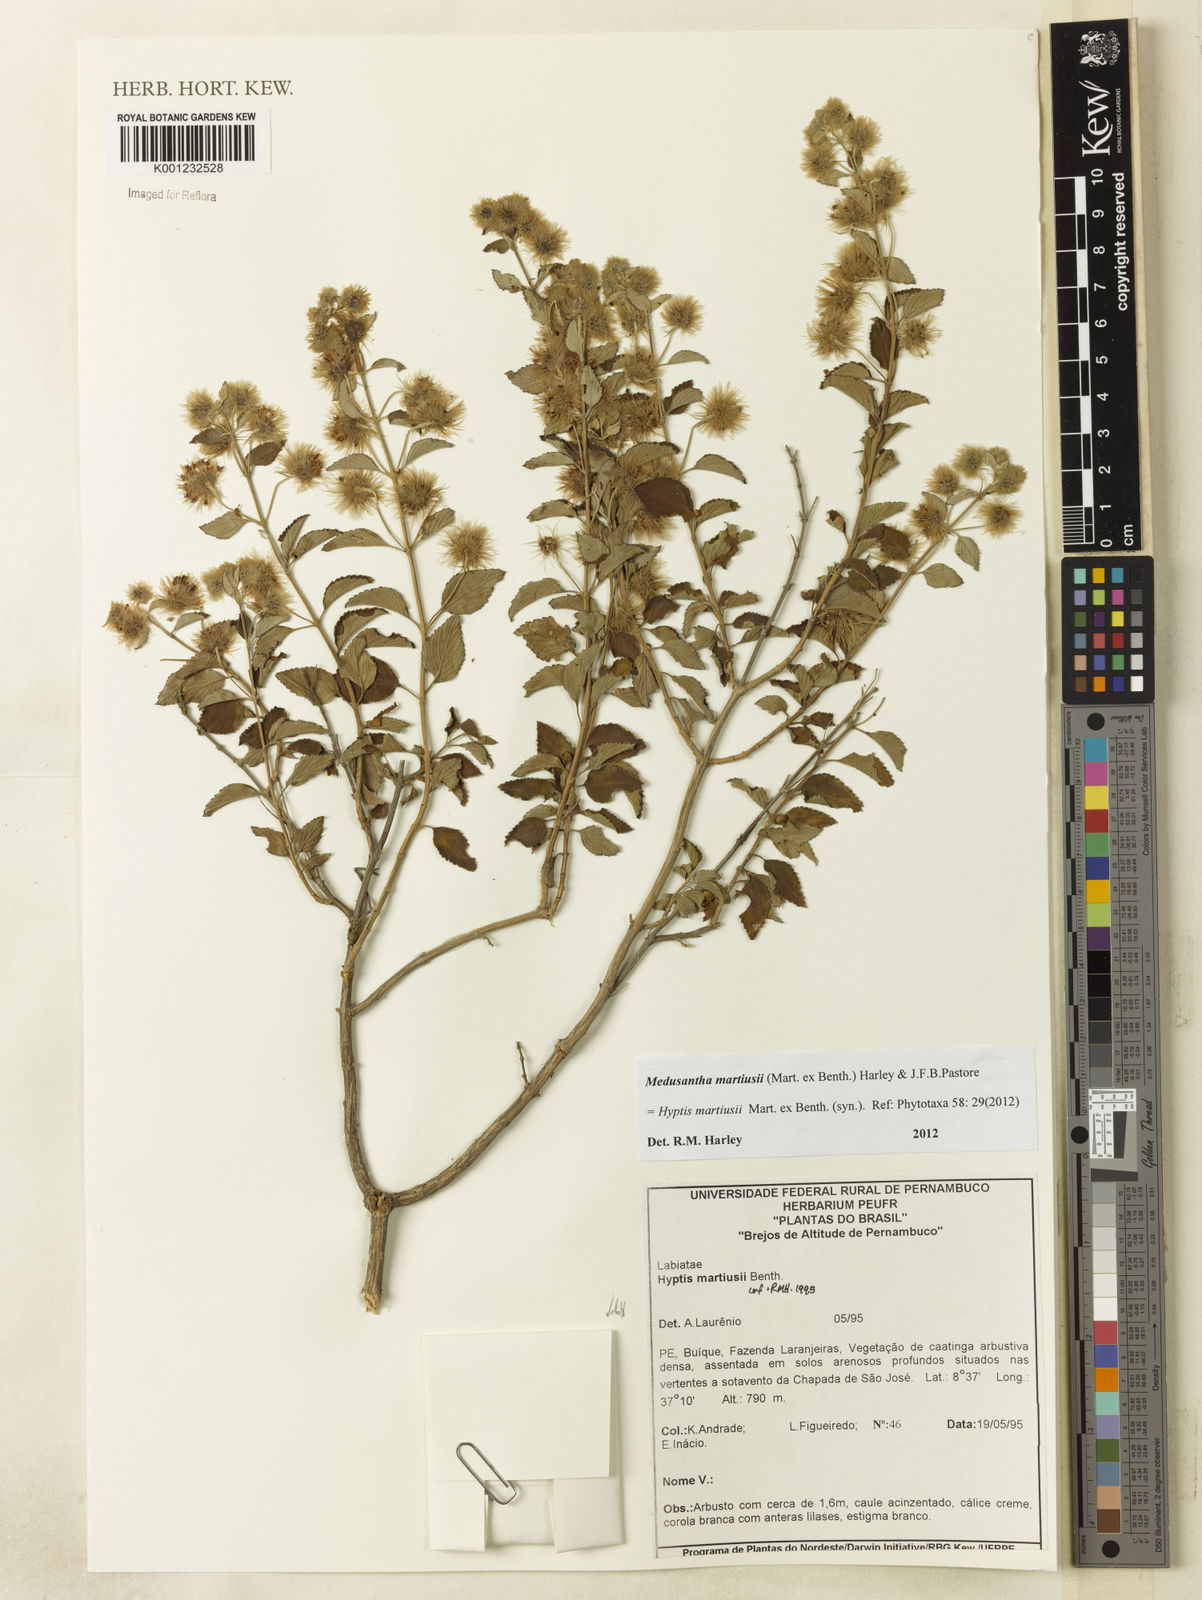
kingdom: Plantae
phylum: Tracheophyta
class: Magnoliopsida
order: Lamiales
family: Lamiaceae
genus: Medusantha
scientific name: Medusantha martiusii
